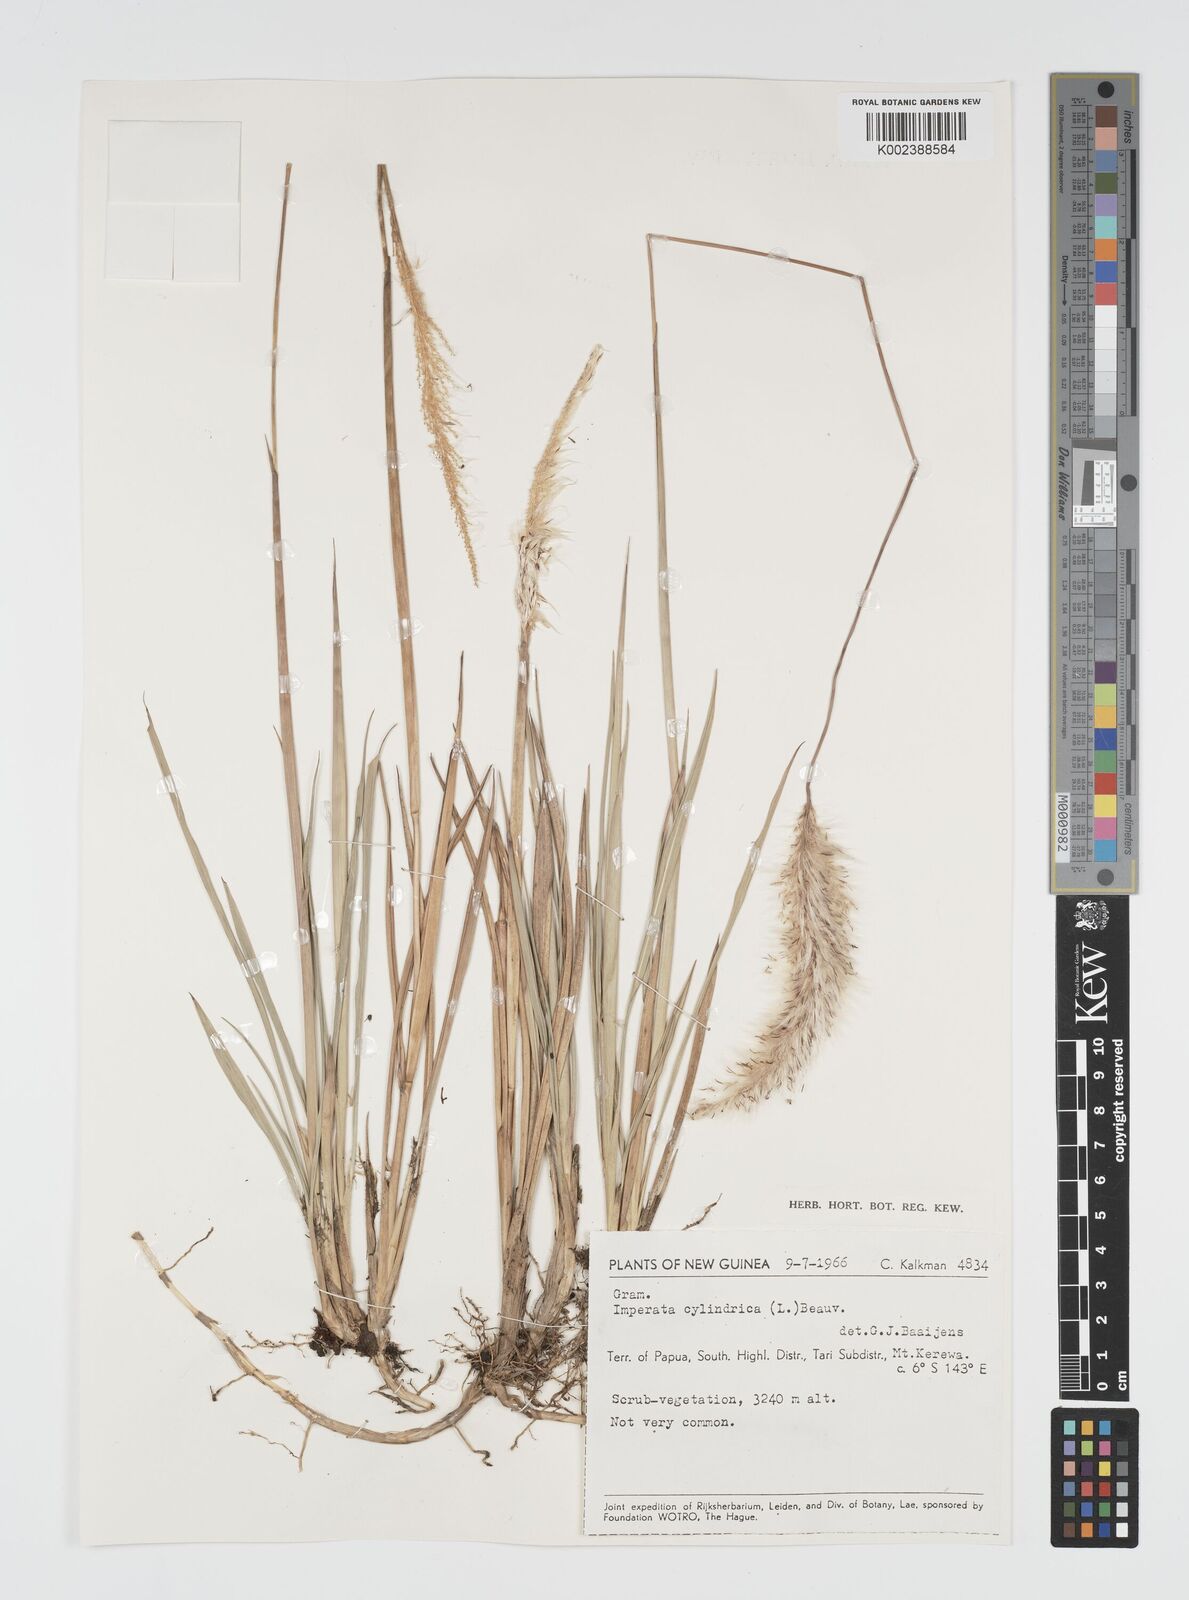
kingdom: Plantae
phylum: Tracheophyta
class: Liliopsida
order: Poales
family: Poaceae
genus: Imperata
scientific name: Imperata cylindrica
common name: Cogongrass
